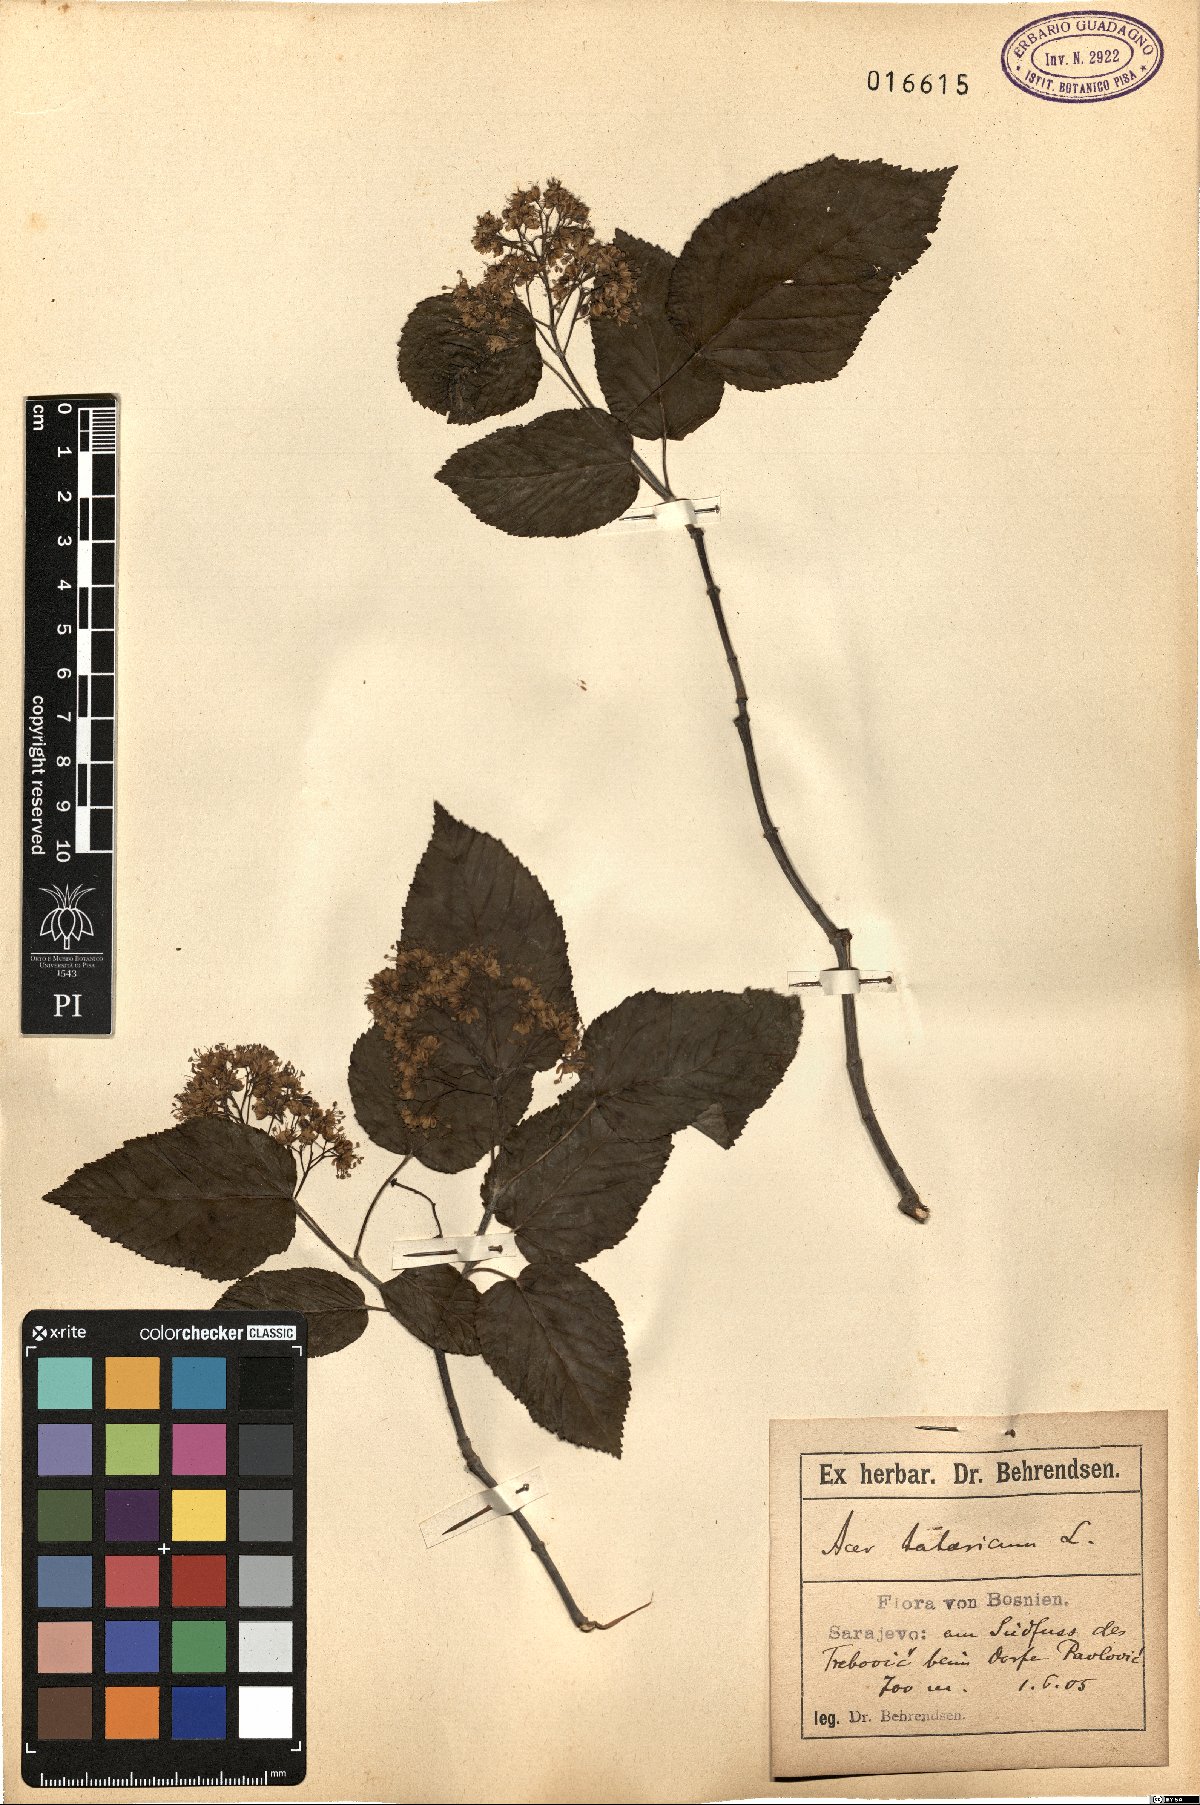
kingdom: Plantae
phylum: Tracheophyta
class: Magnoliopsida
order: Sapindales
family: Sapindaceae
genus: Acer
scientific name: Acer tataricum
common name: Tartar maple
